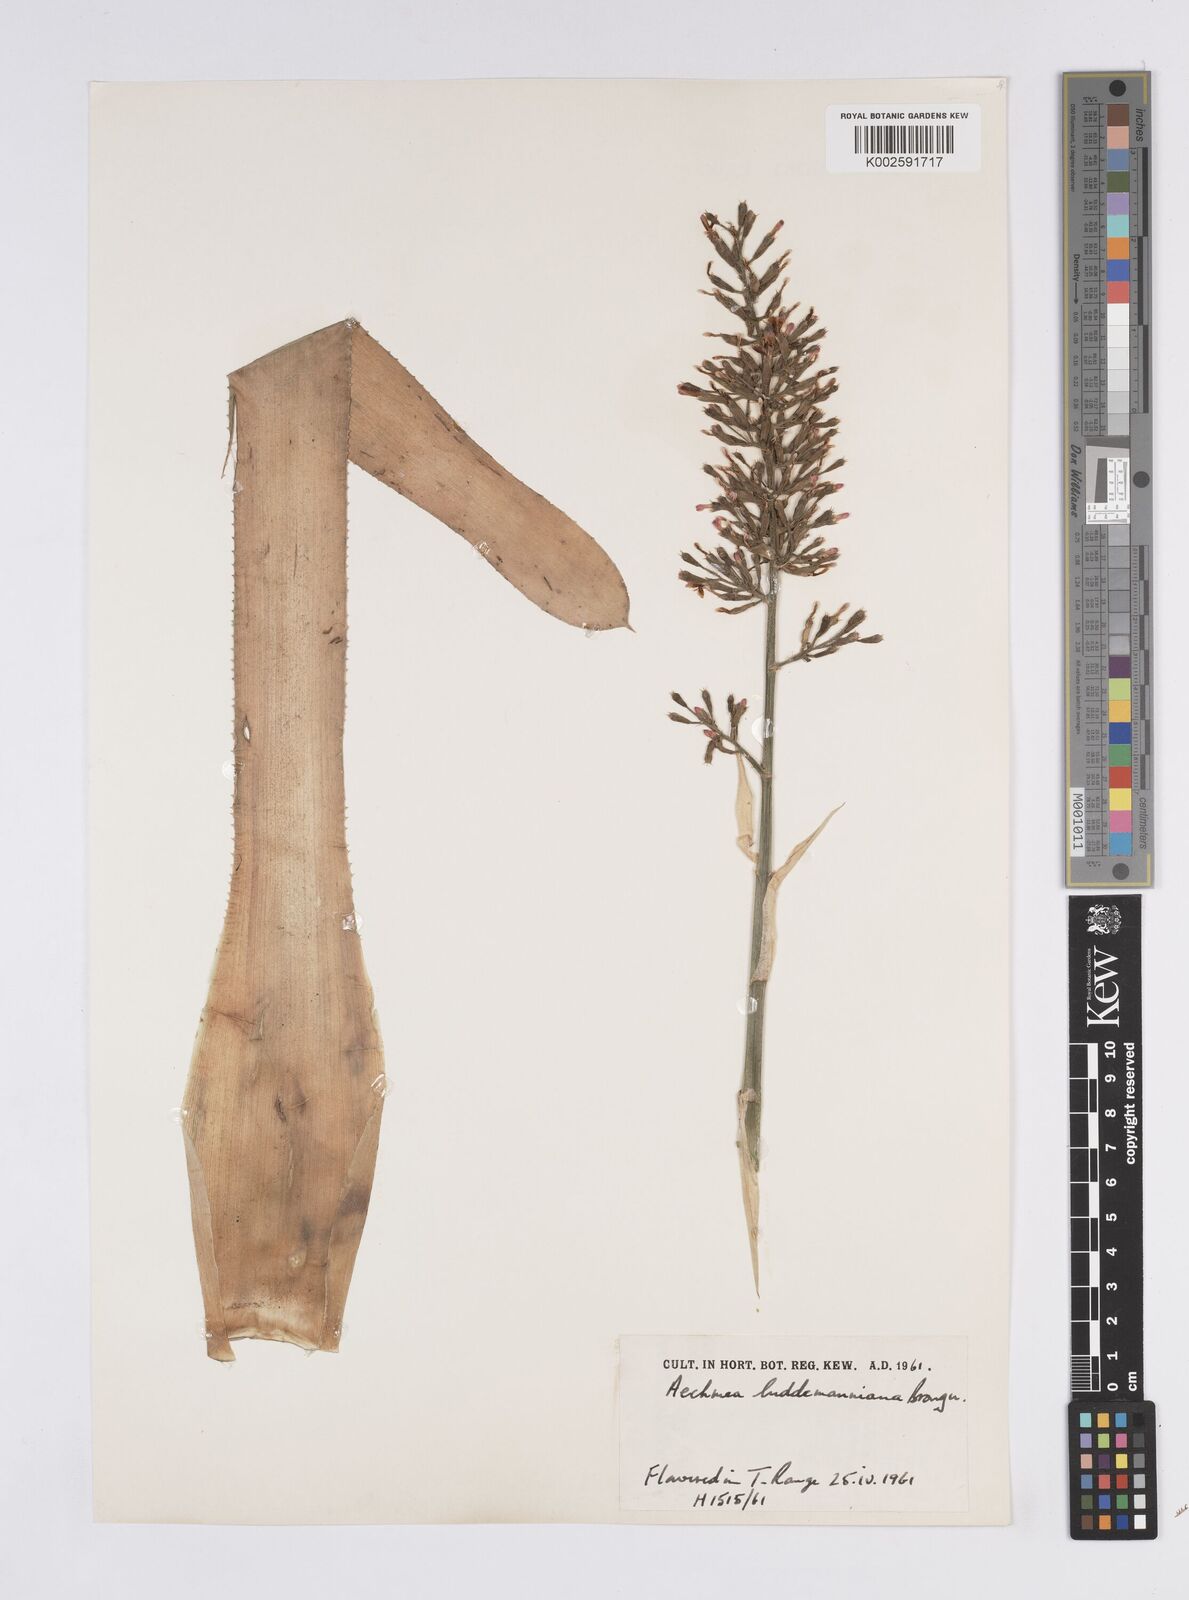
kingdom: Plantae
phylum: Tracheophyta
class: Liliopsida
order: Poales
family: Bromeliaceae
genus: Aechmea
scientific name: Aechmea lueddemanniana
